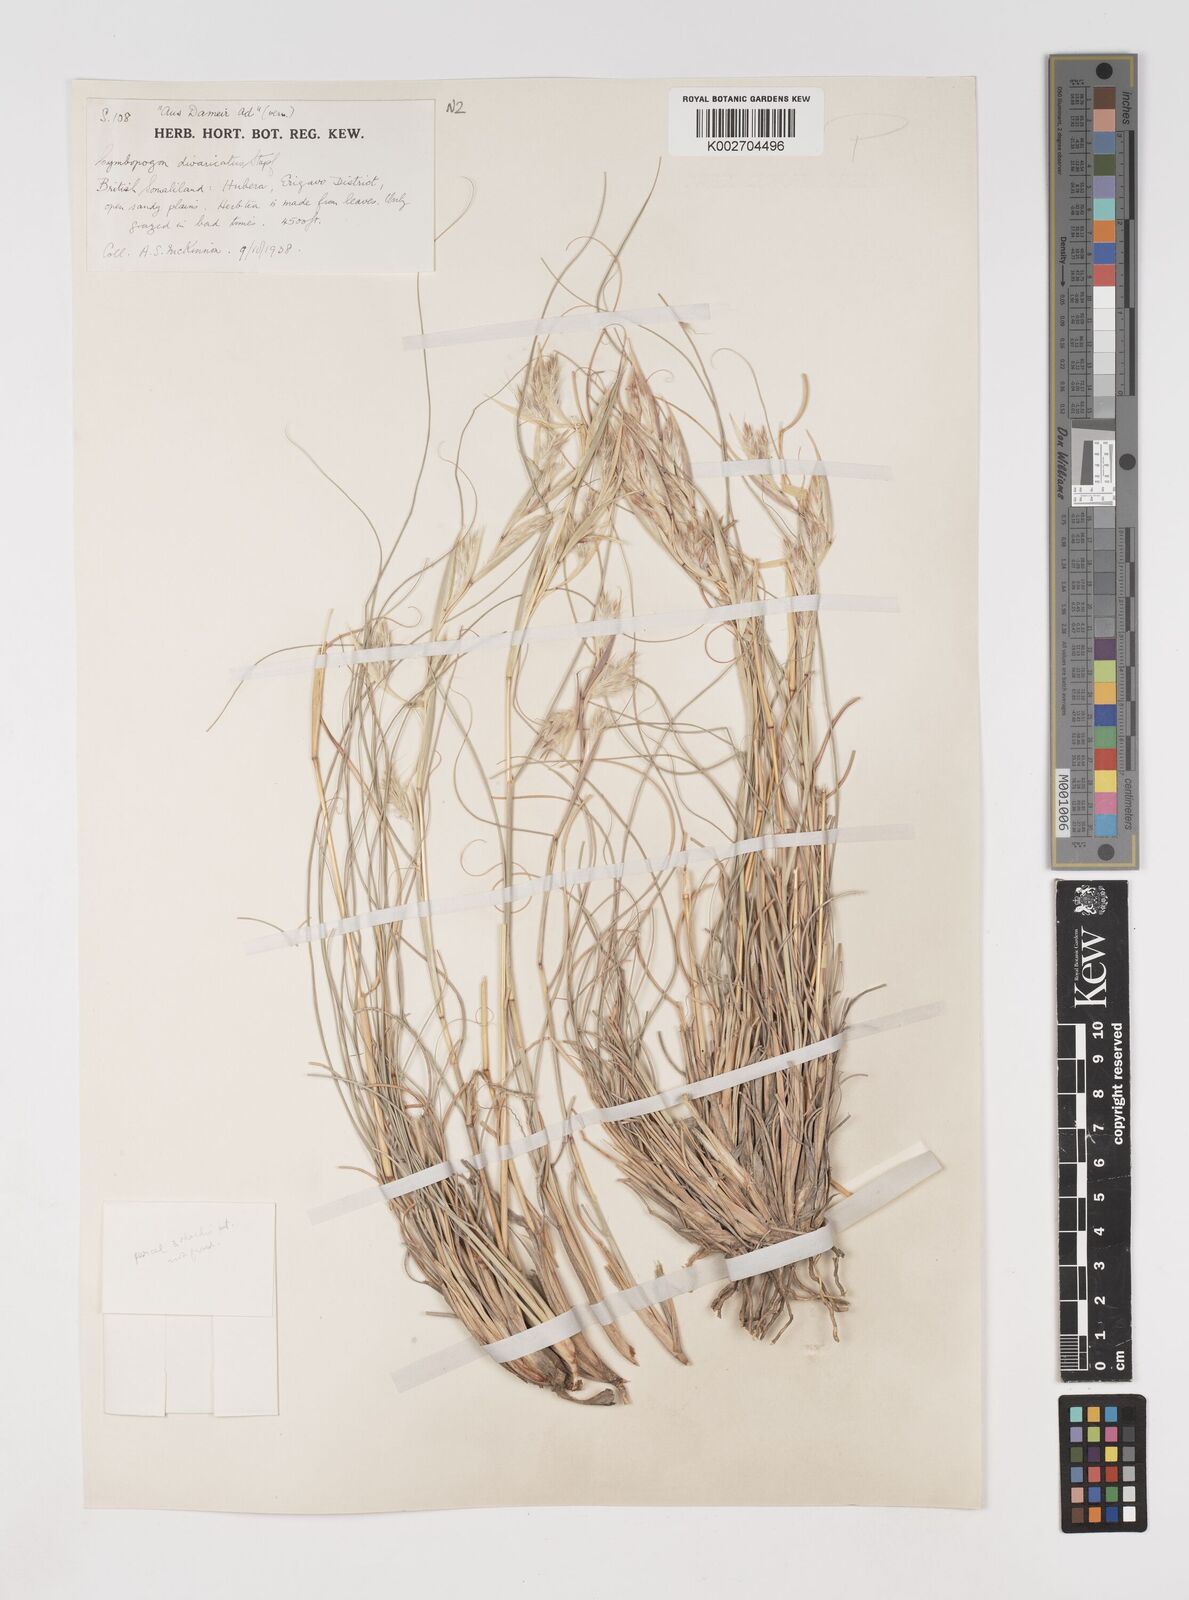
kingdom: Plantae
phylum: Tracheophyta
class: Liliopsida
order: Poales
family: Poaceae
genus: Cymbopogon
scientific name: Cymbopogon schoenanthus
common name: Geranium grass
